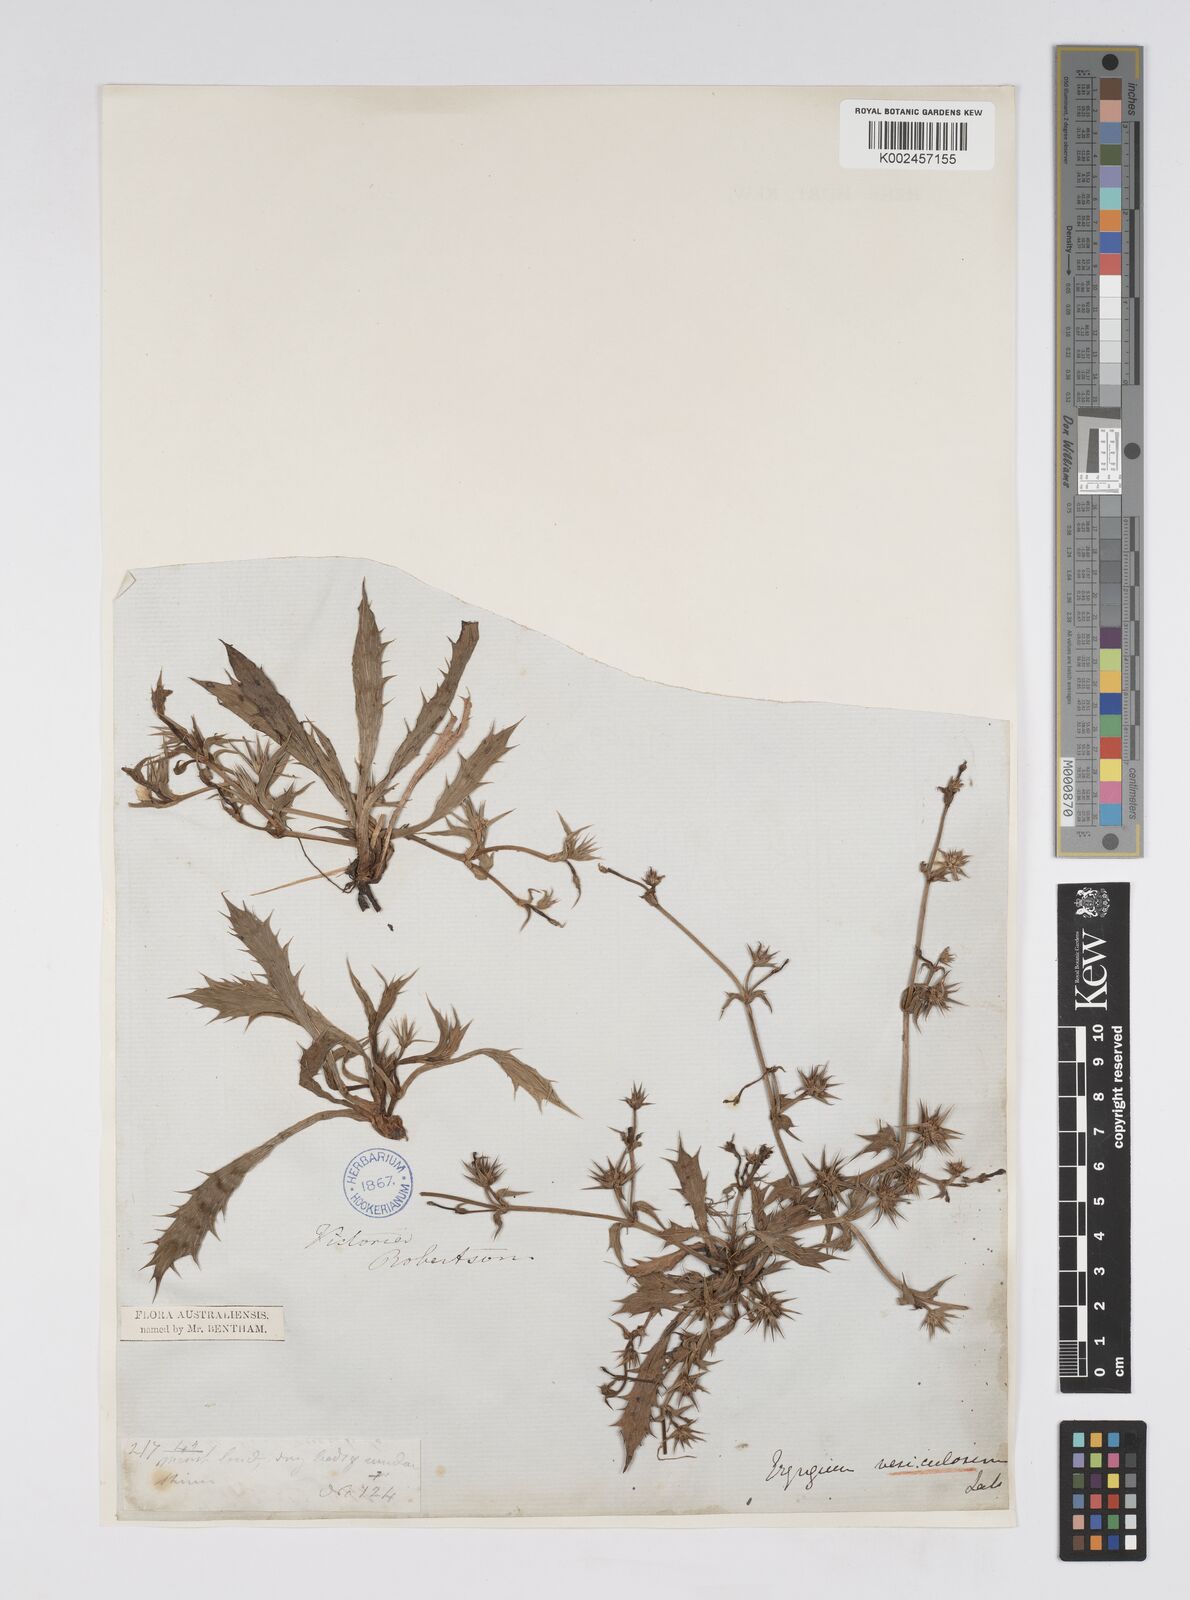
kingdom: Plantae
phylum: Tracheophyta
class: Magnoliopsida
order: Apiales
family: Apiaceae
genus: Eryngium
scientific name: Eryngium vesiculosum
